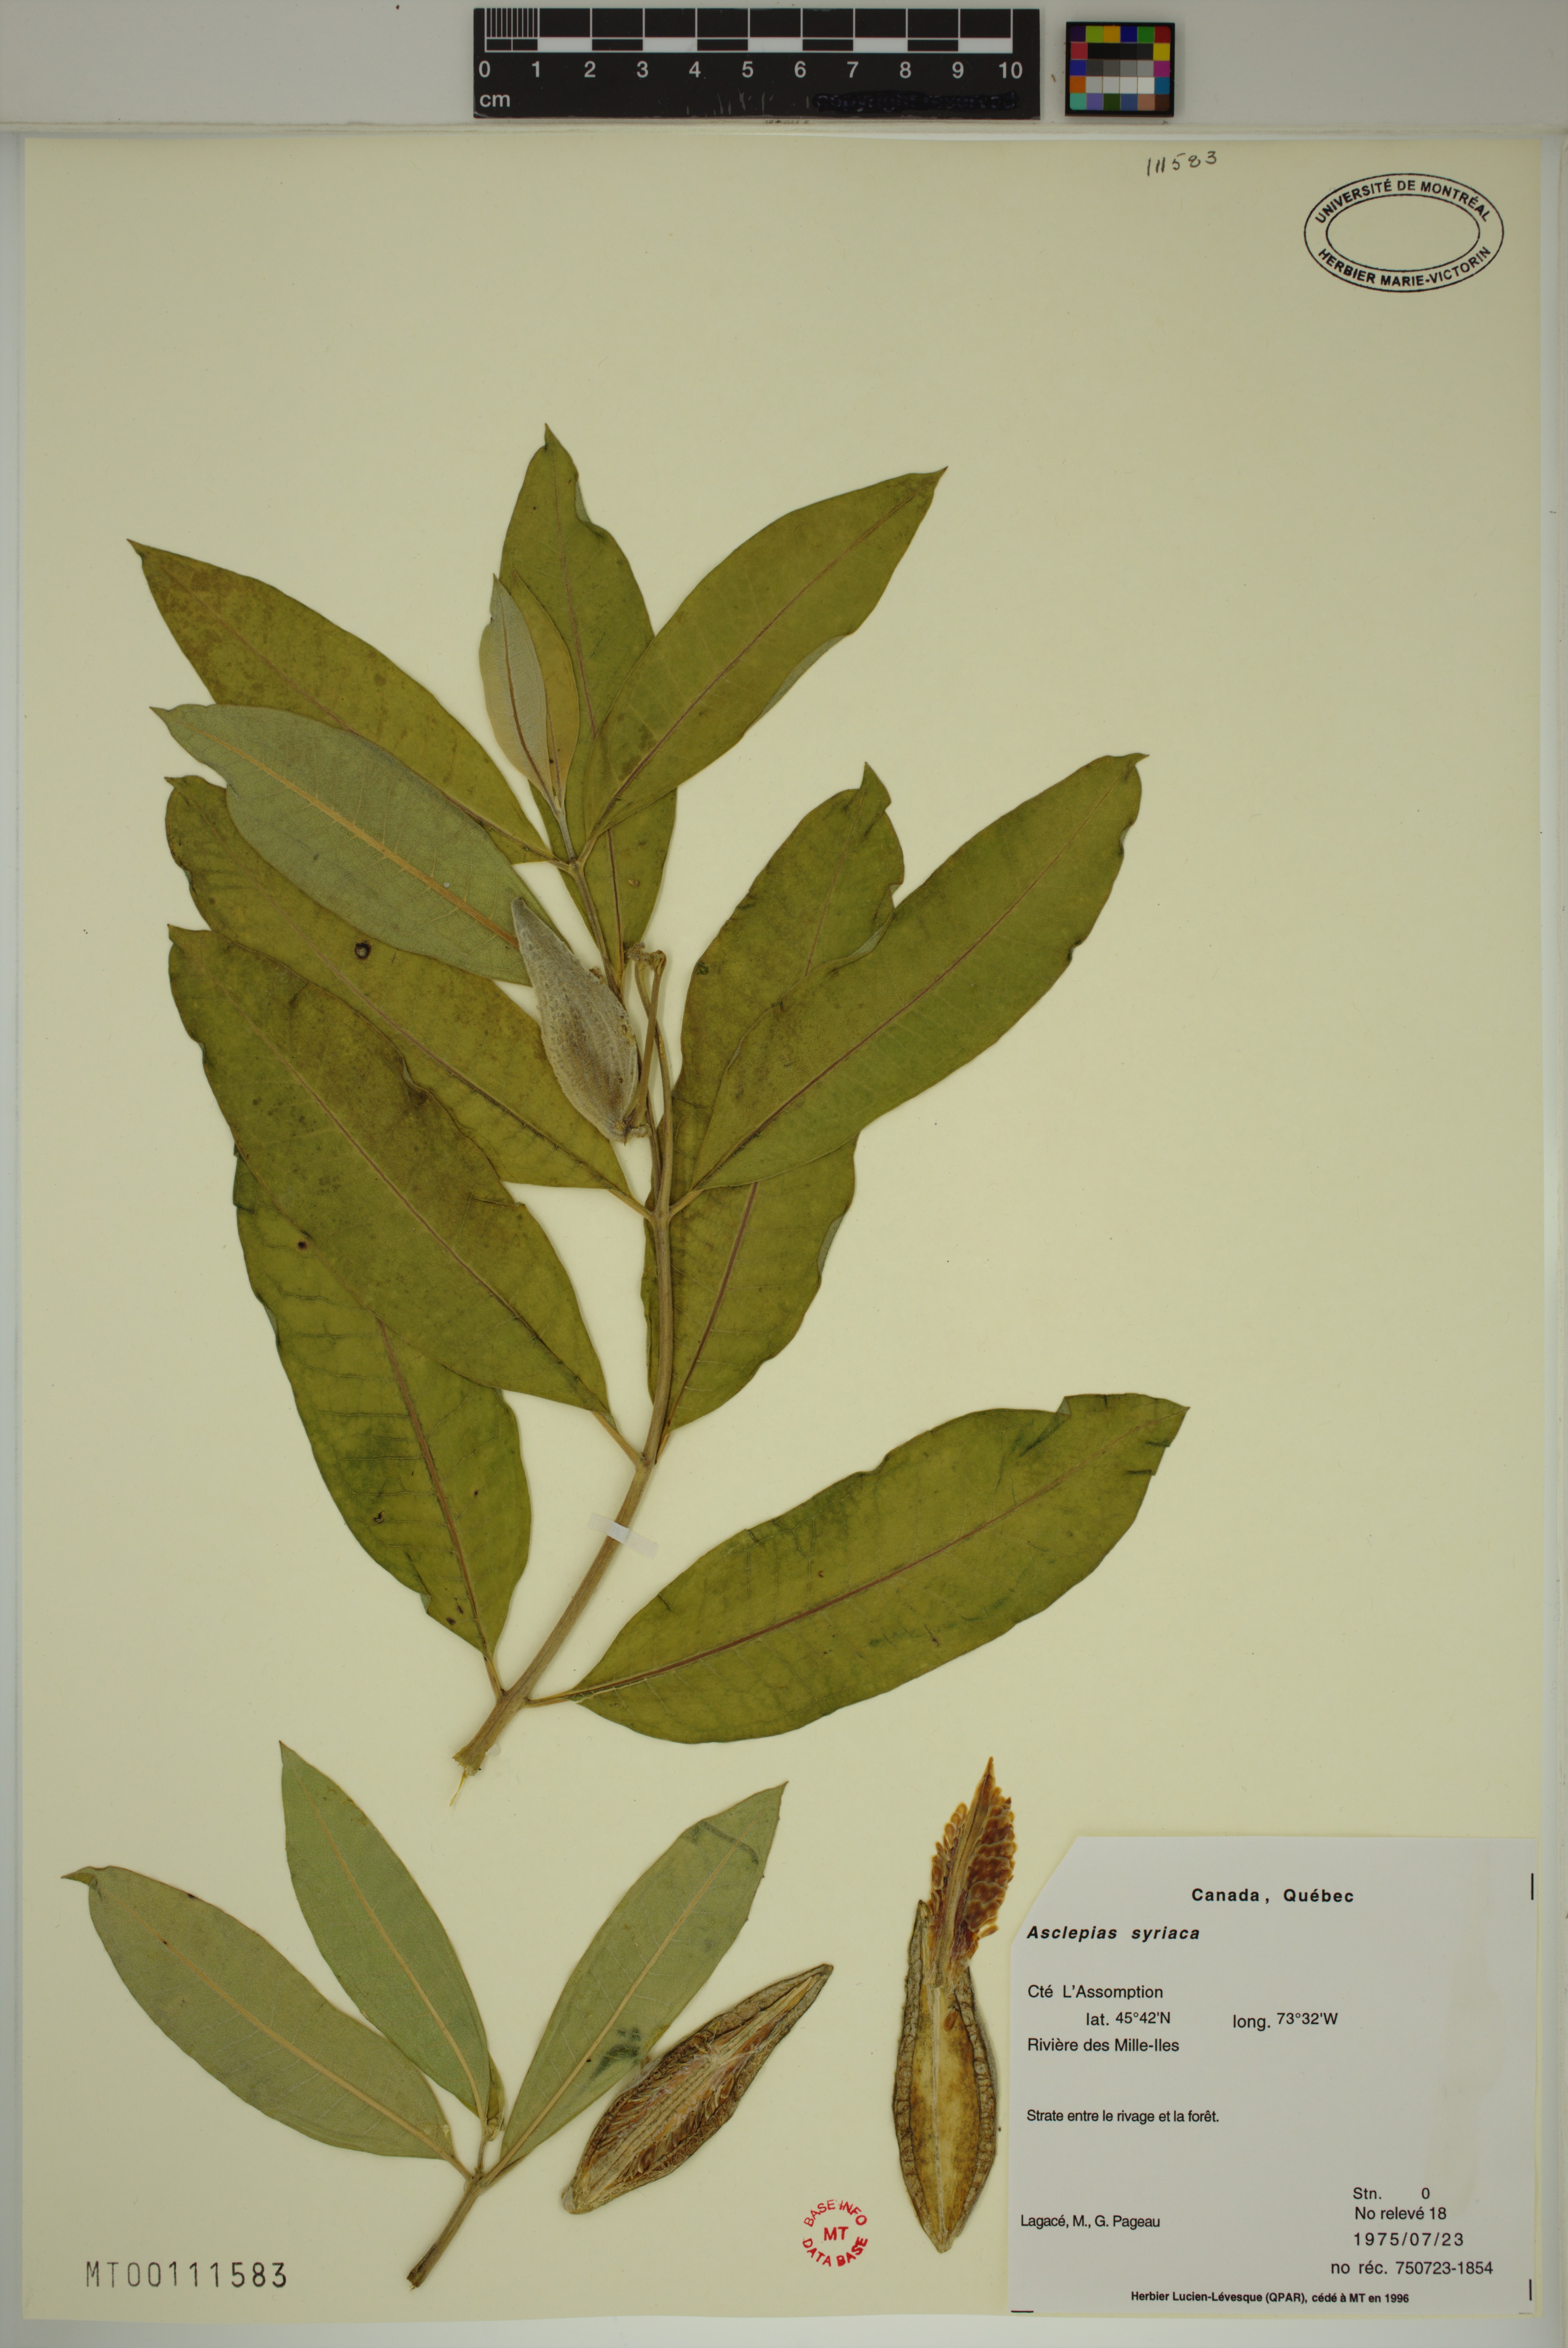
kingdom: Plantae
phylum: Tracheophyta
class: Magnoliopsida
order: Gentianales
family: Apocynaceae
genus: Asclepias
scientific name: Asclepias syriaca
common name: Common milkweed
